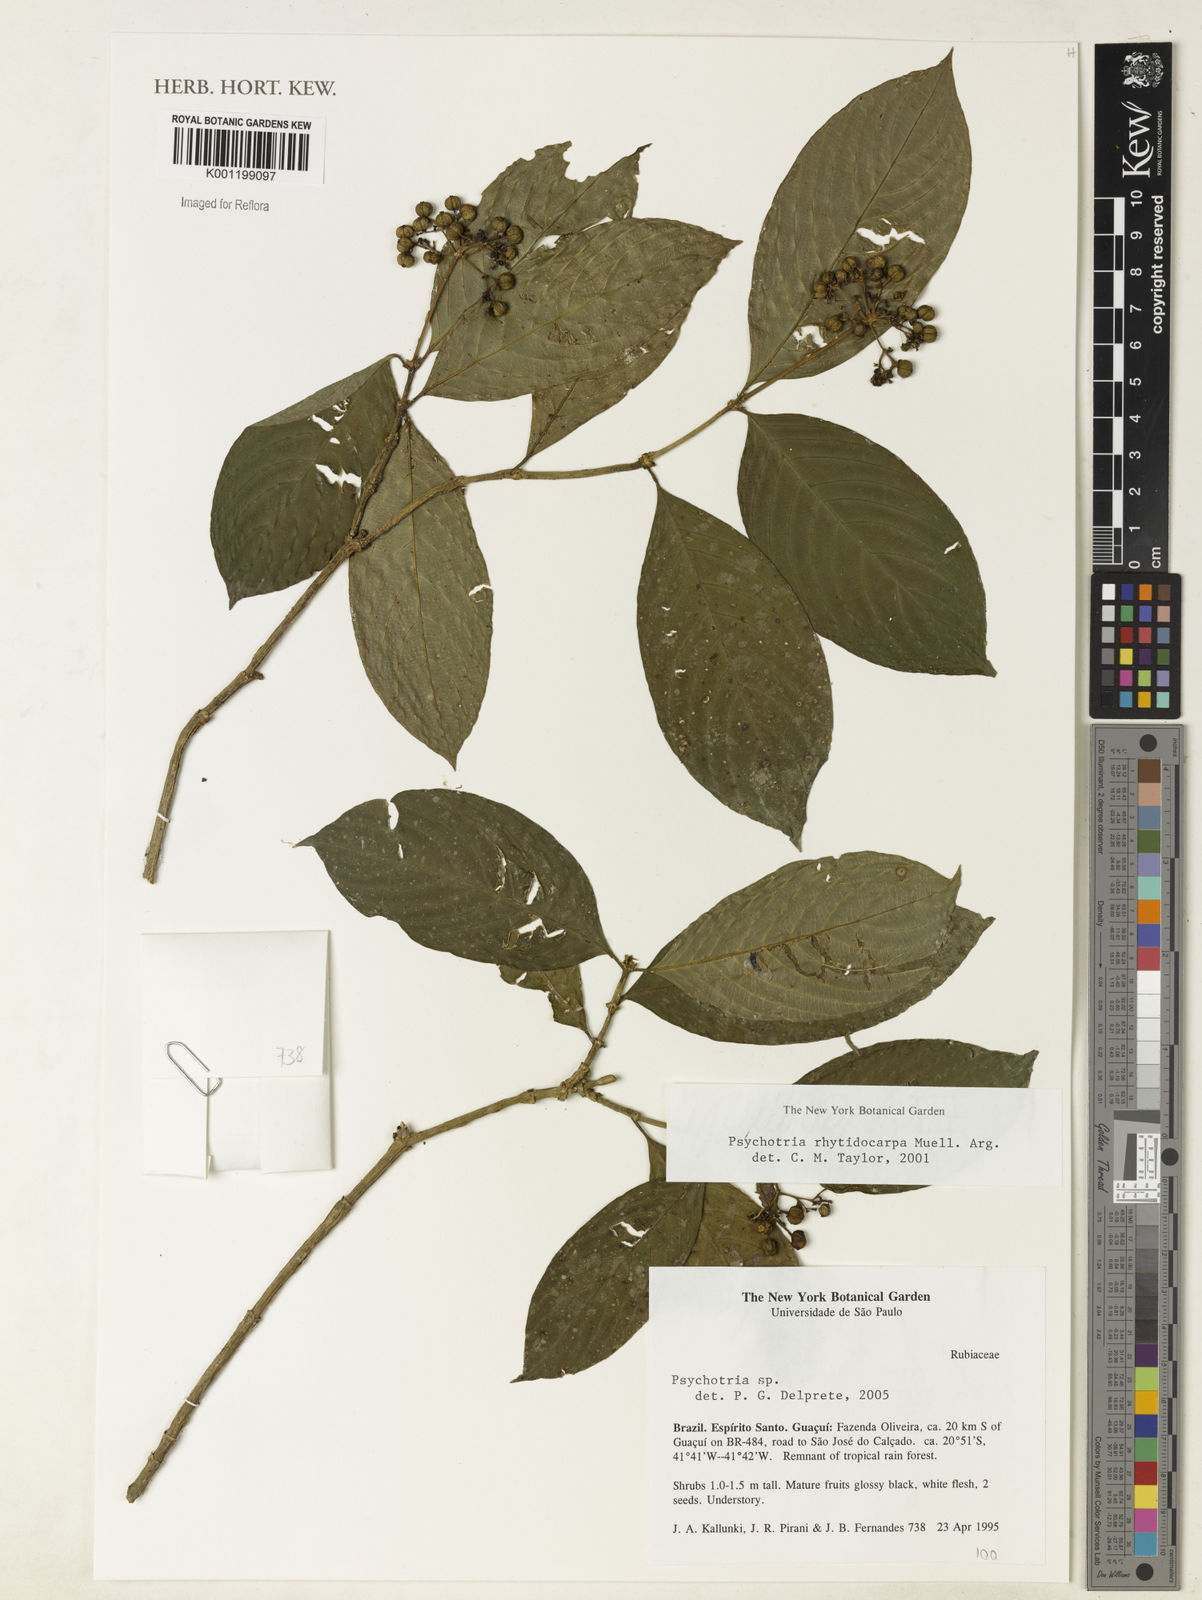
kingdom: Plantae
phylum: Tracheophyta
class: Magnoliopsida
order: Gentianales
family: Rubiaceae
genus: Psychotria
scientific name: Psychotria
